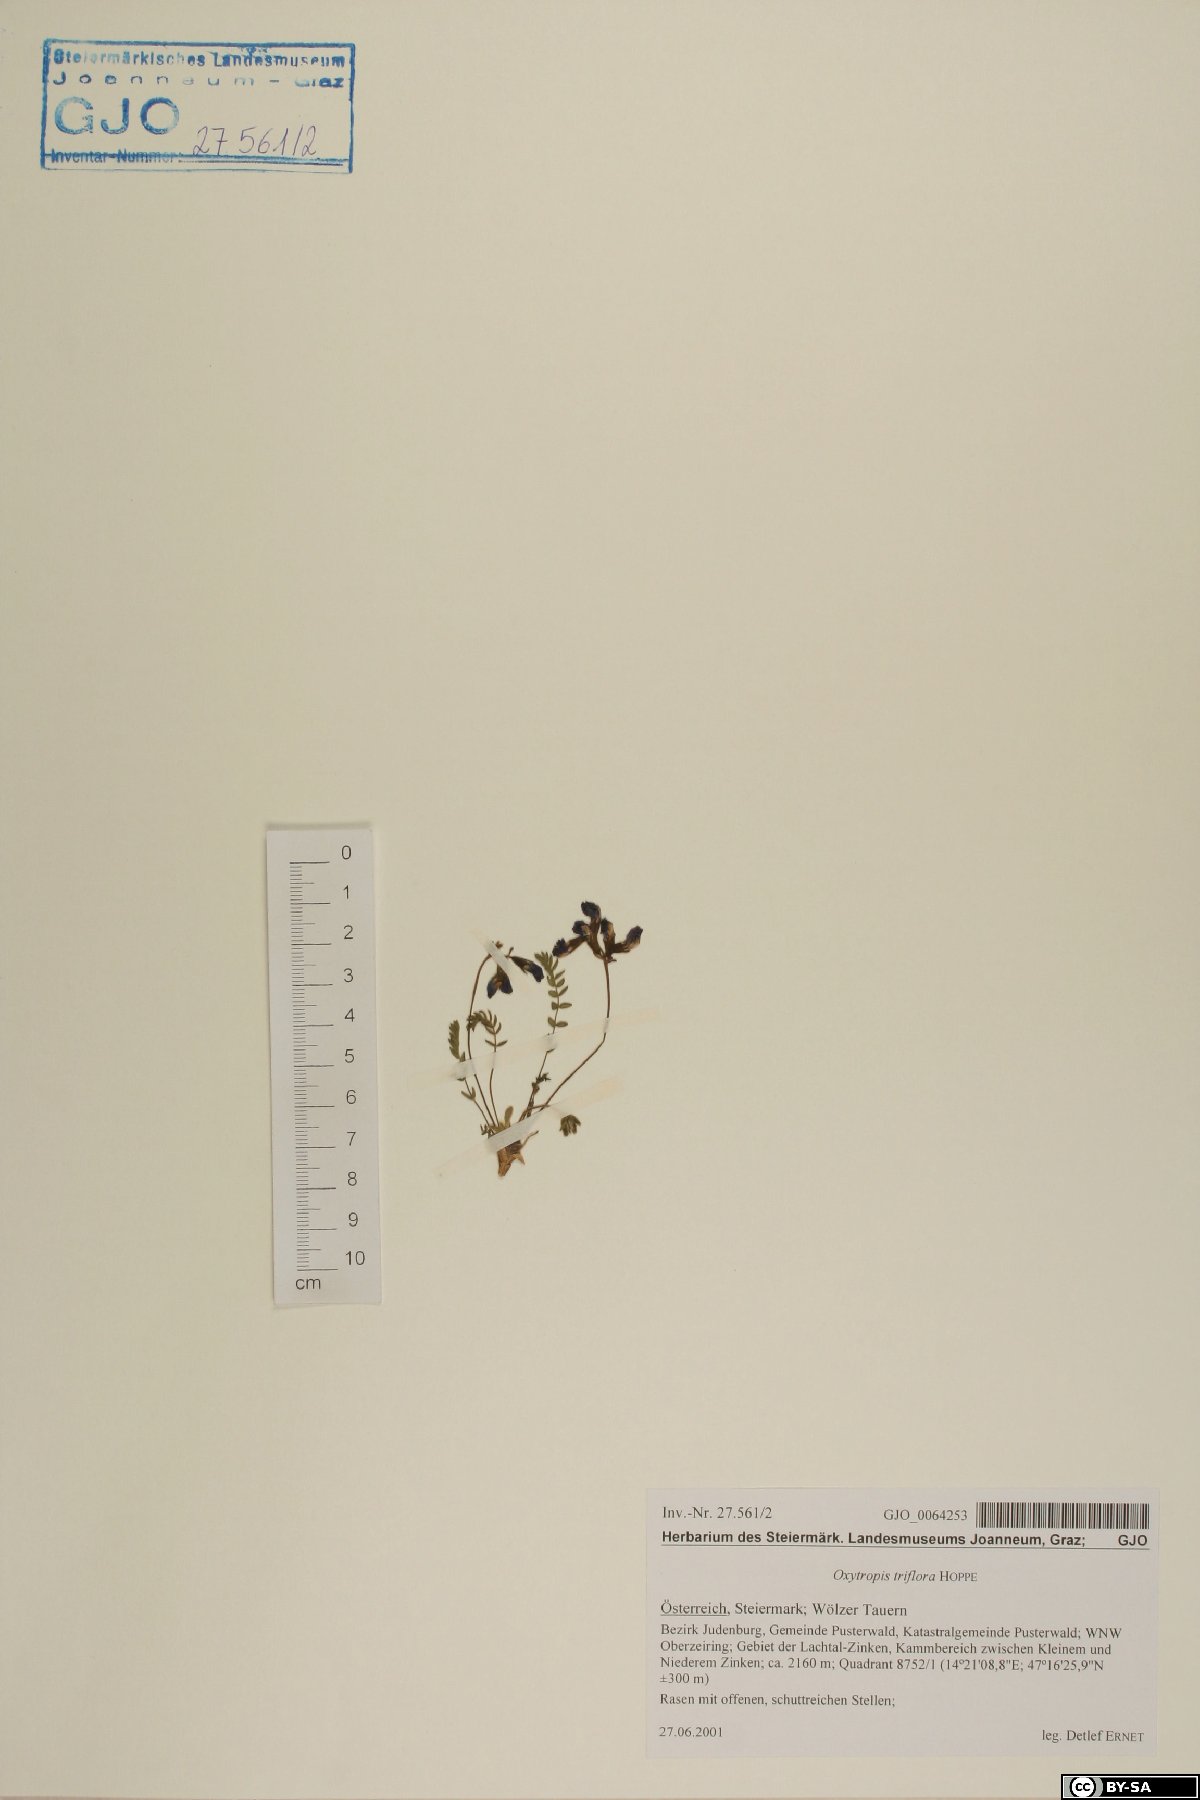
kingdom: Plantae
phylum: Tracheophyta
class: Magnoliopsida
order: Fabales
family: Fabaceae
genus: Oxytropis
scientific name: Oxytropis triflora
